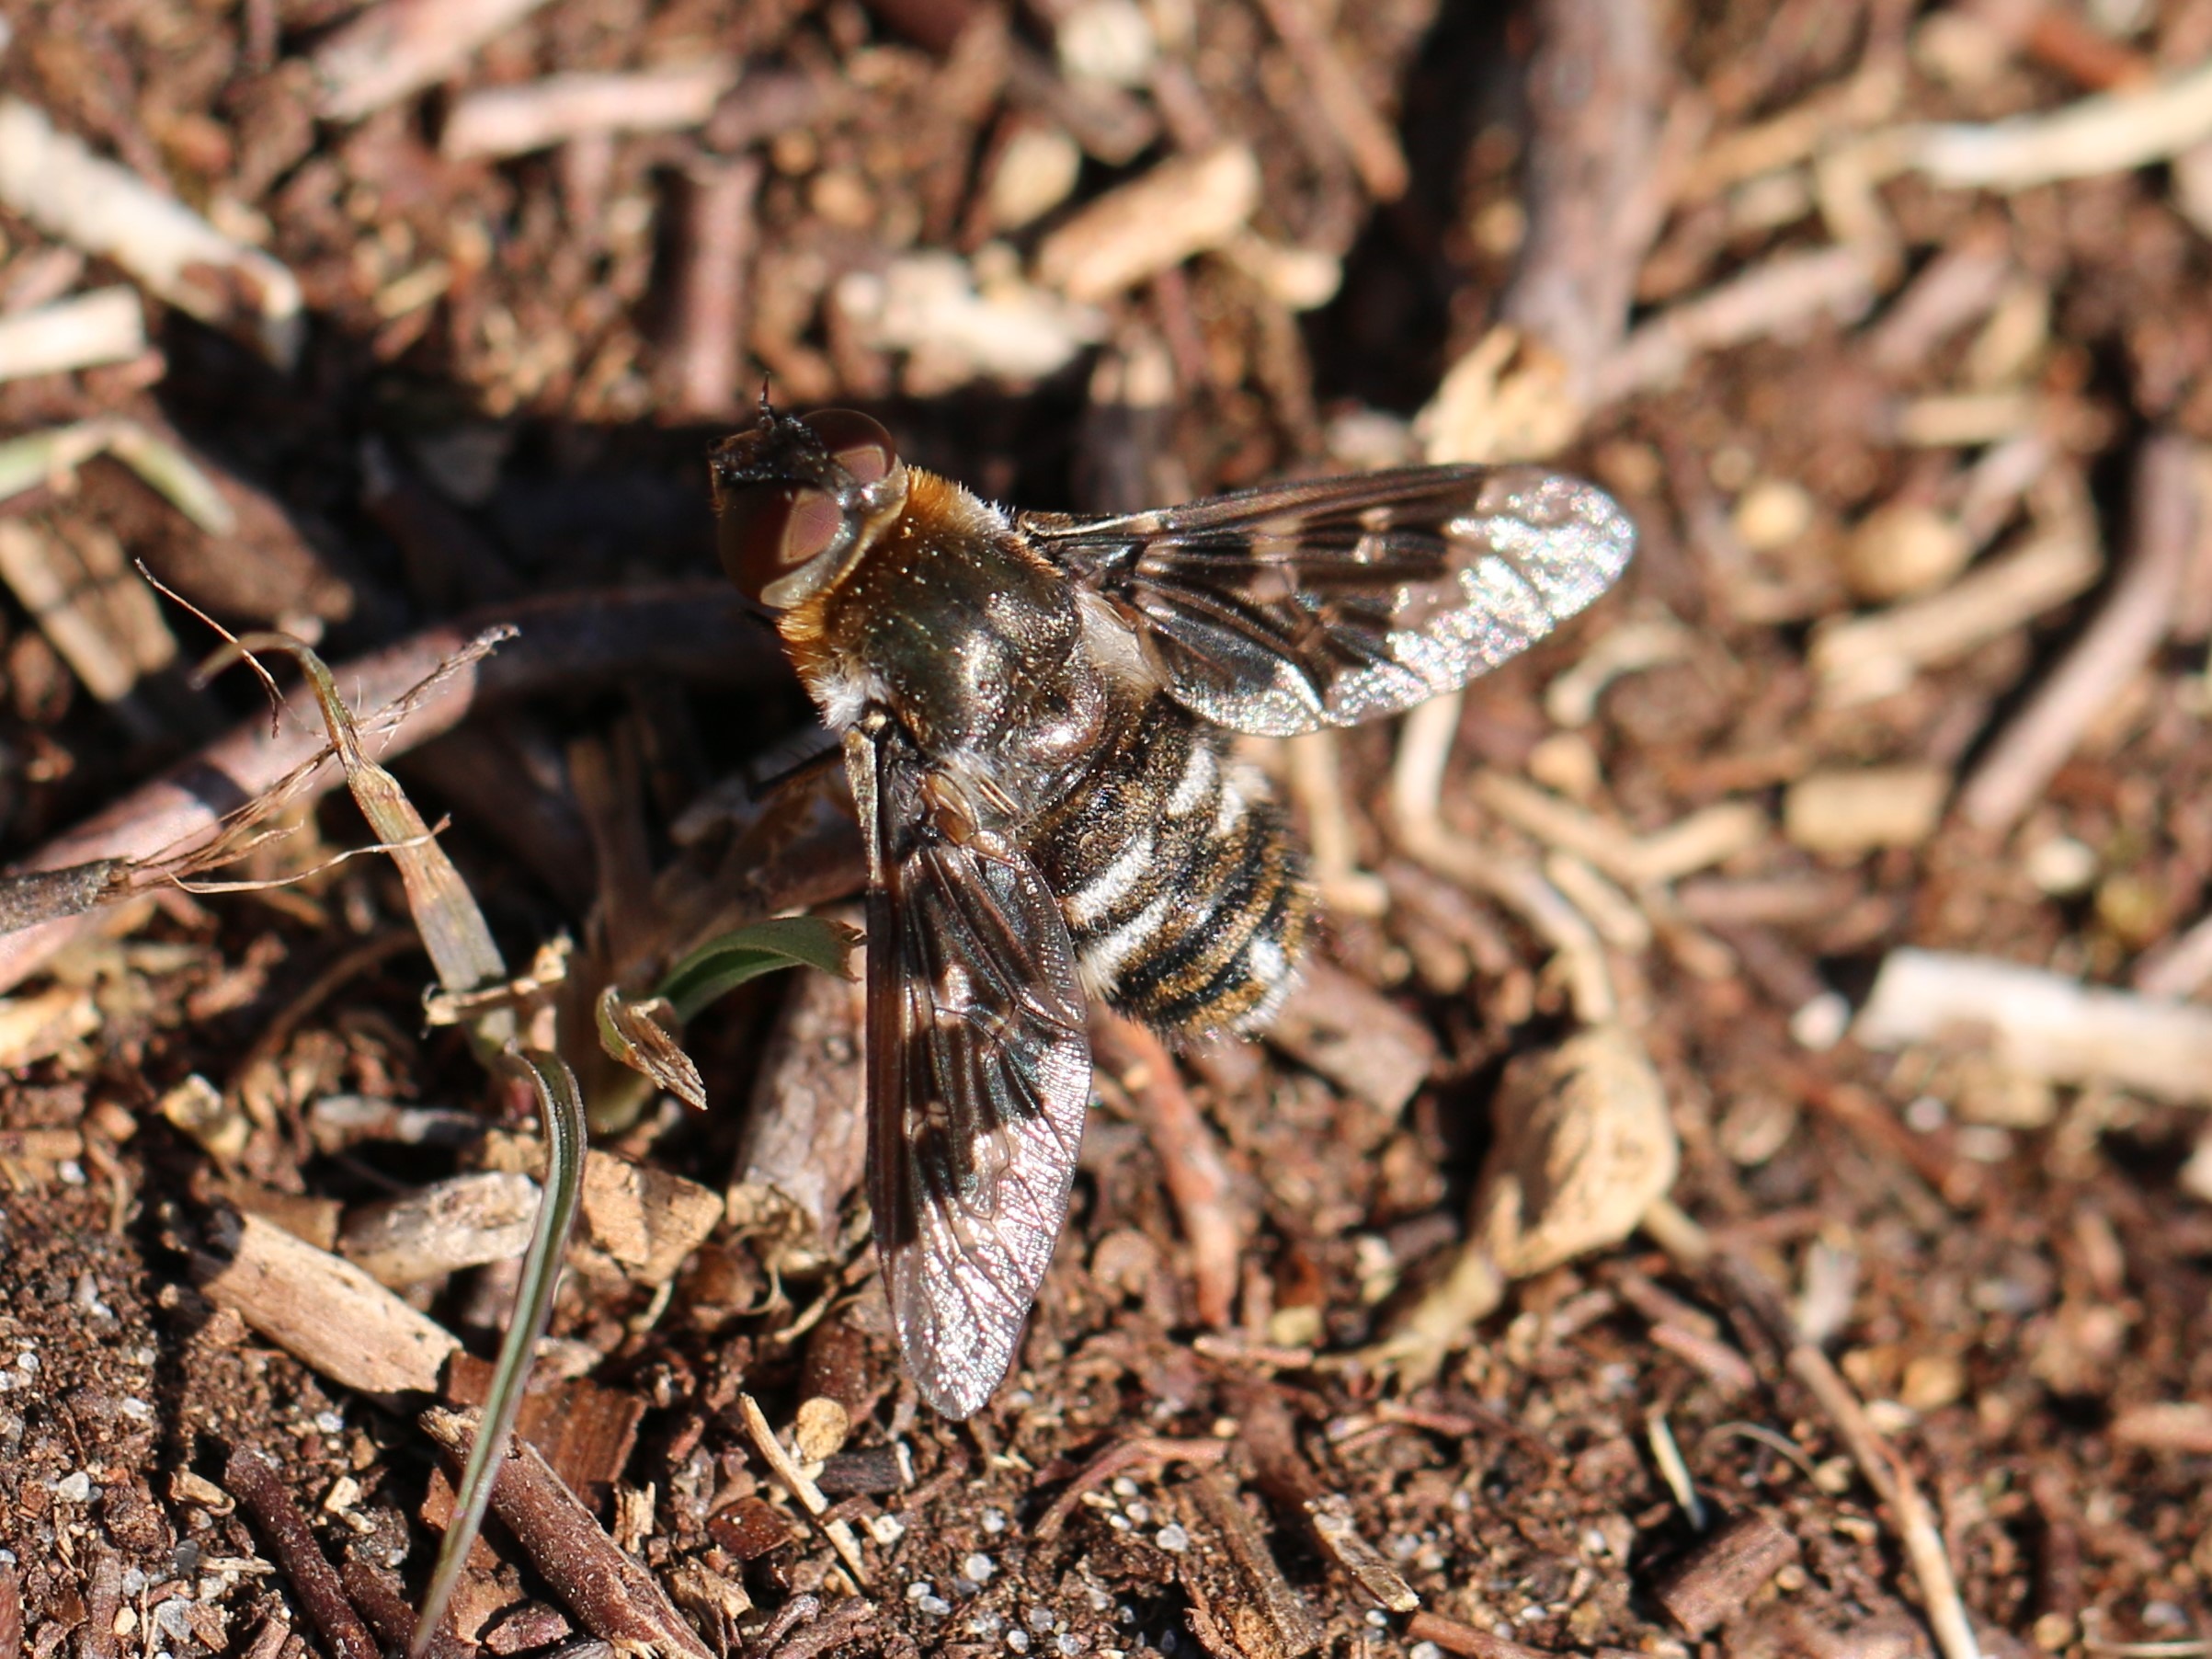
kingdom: Animalia
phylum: Arthropoda
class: Insecta
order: Diptera
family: Bombyliidae
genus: Thyridanthrax
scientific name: Thyridanthrax fenestratus
